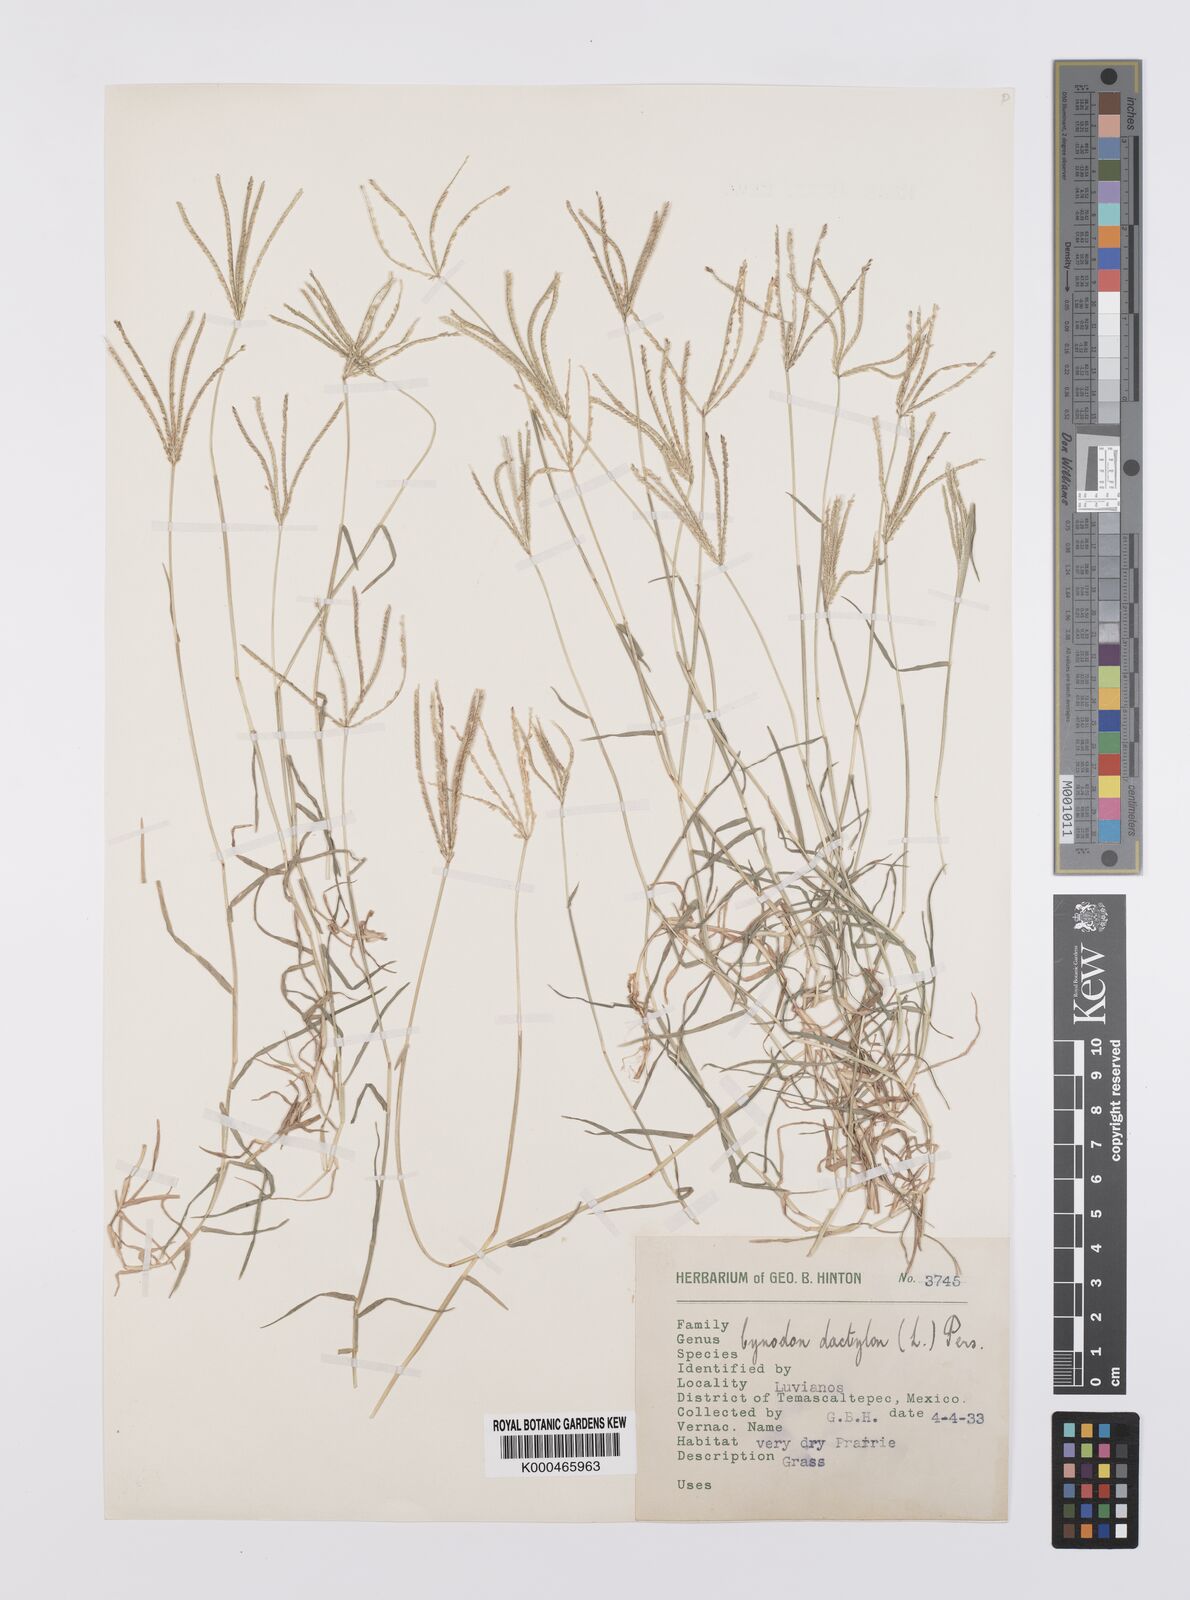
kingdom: Plantae
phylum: Tracheophyta
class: Liliopsida
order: Poales
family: Poaceae
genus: Cynodon
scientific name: Cynodon dactylon
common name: Bermuda grass
